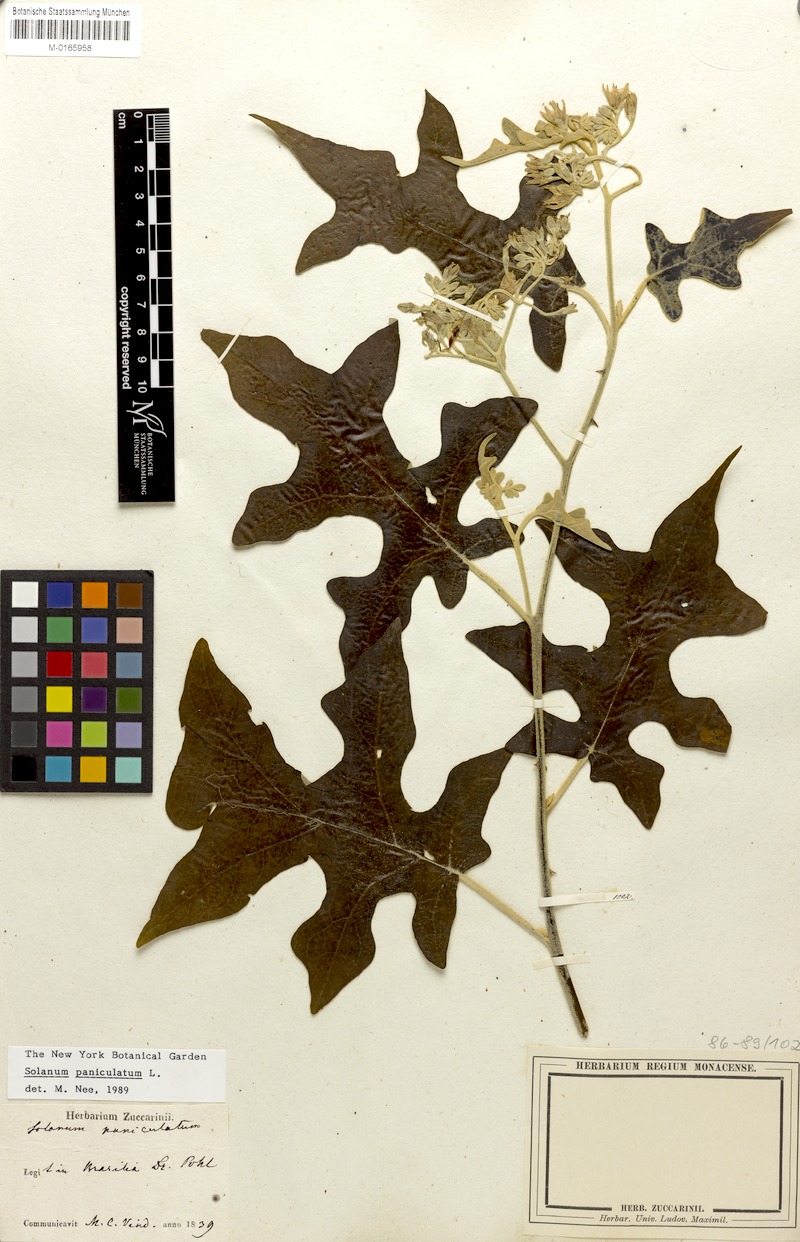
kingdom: Plantae
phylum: Tracheophyta
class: Magnoliopsida
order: Solanales
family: Solanaceae
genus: Solanum
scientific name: Solanum paniculatum
